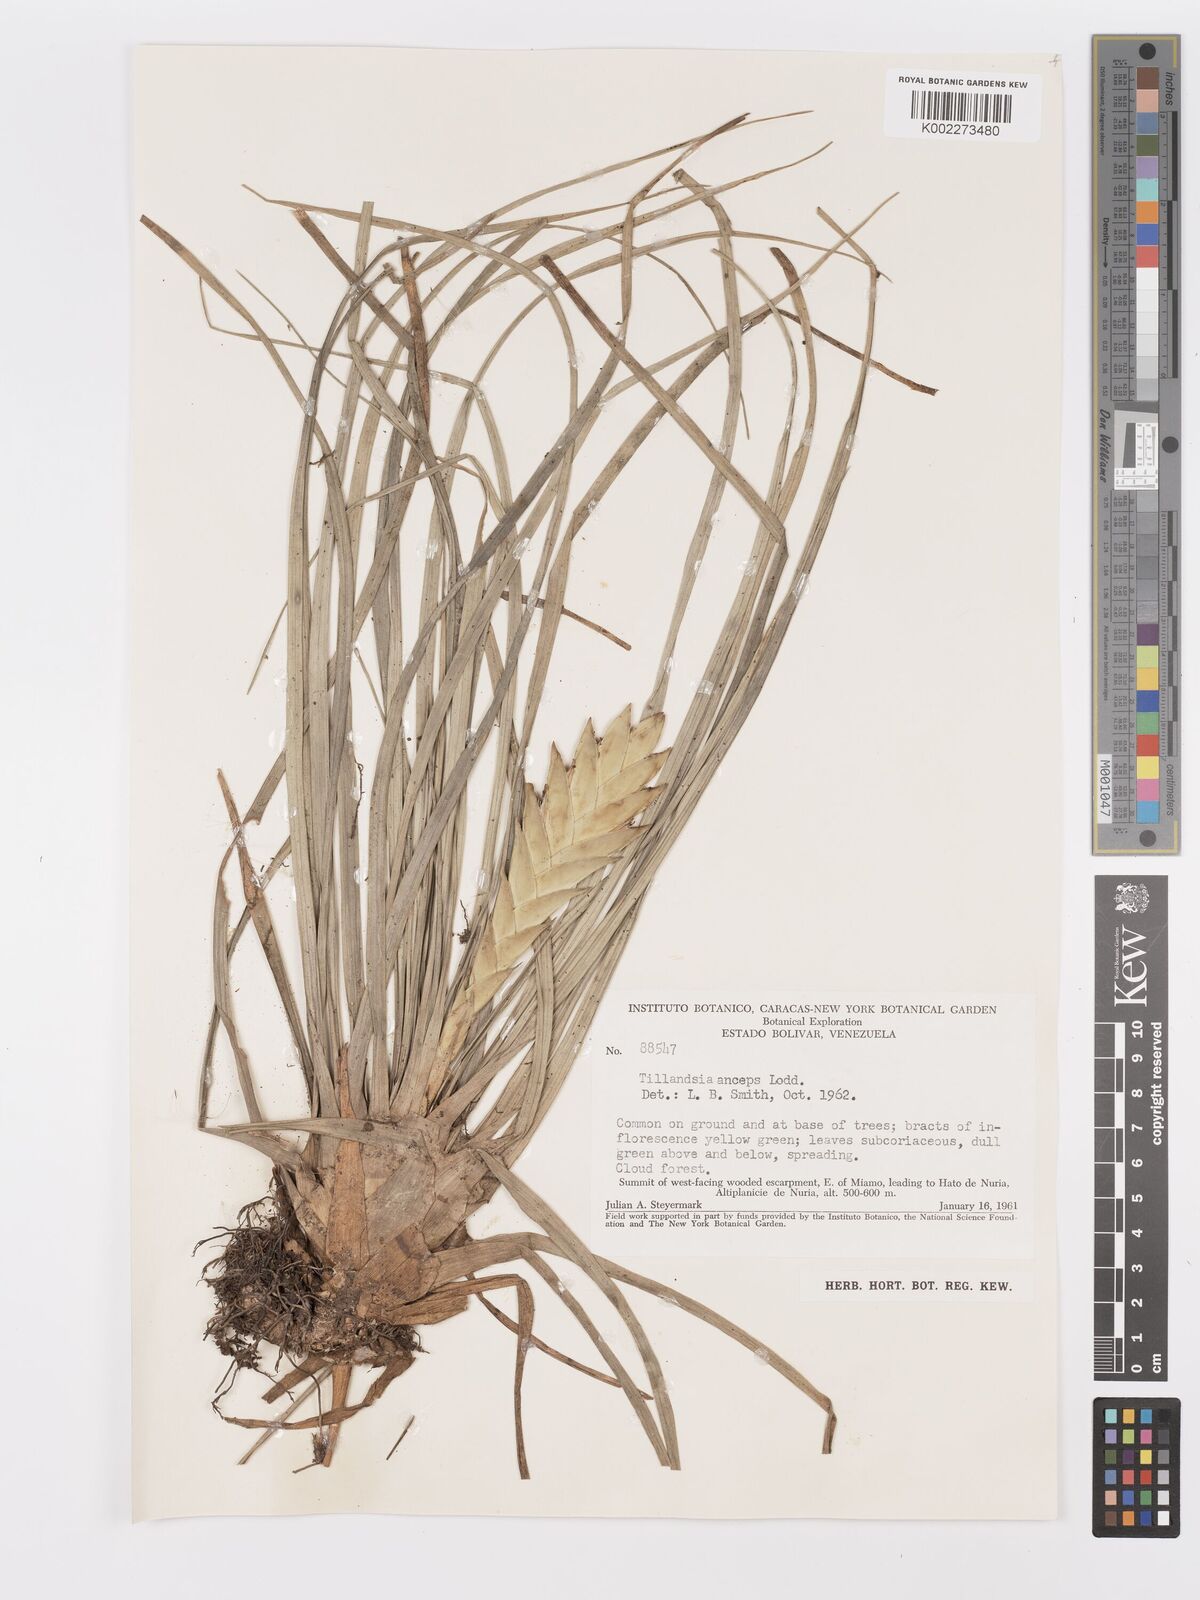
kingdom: Plantae
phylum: Tracheophyta
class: Liliopsida
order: Poales
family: Bromeliaceae
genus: Wallisia
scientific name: Wallisia anceps
